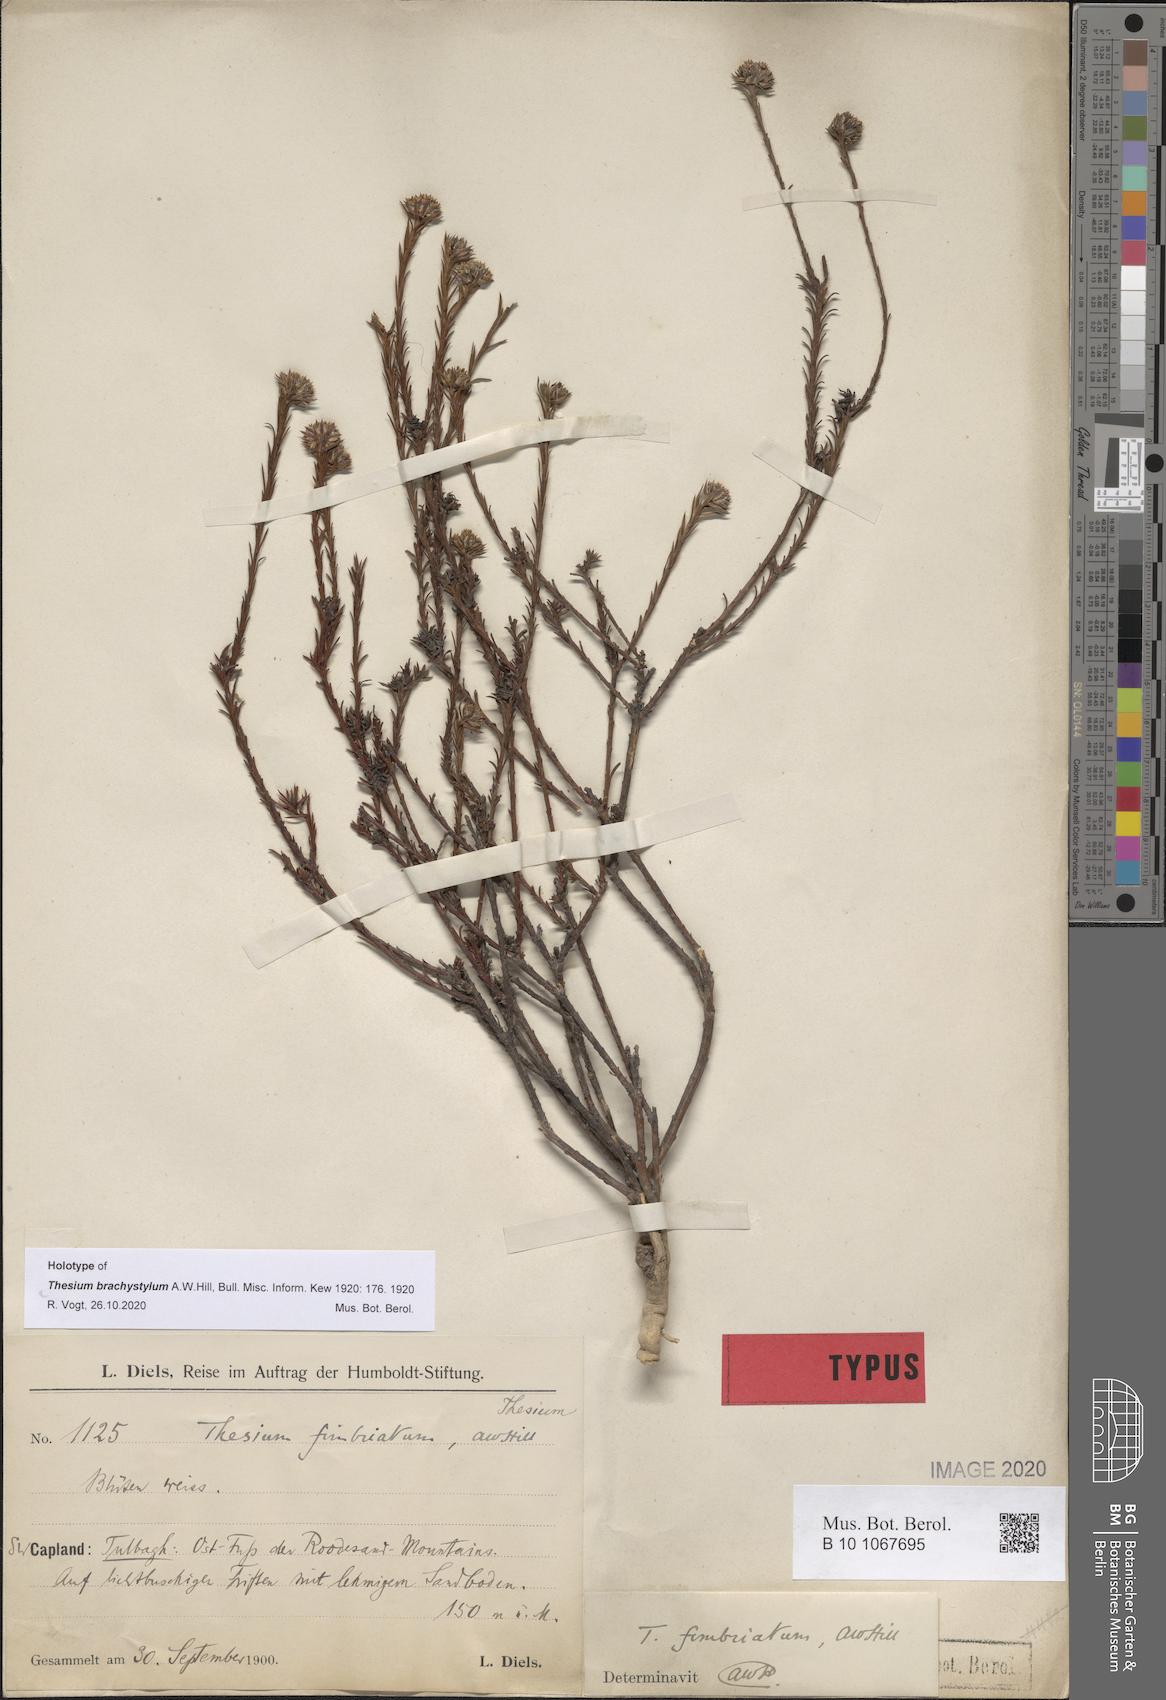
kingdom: Plantae
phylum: Tracheophyta
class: Magnoliopsida
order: Santalales
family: Thesiaceae
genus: Thesium
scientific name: Thesium brachystylum
